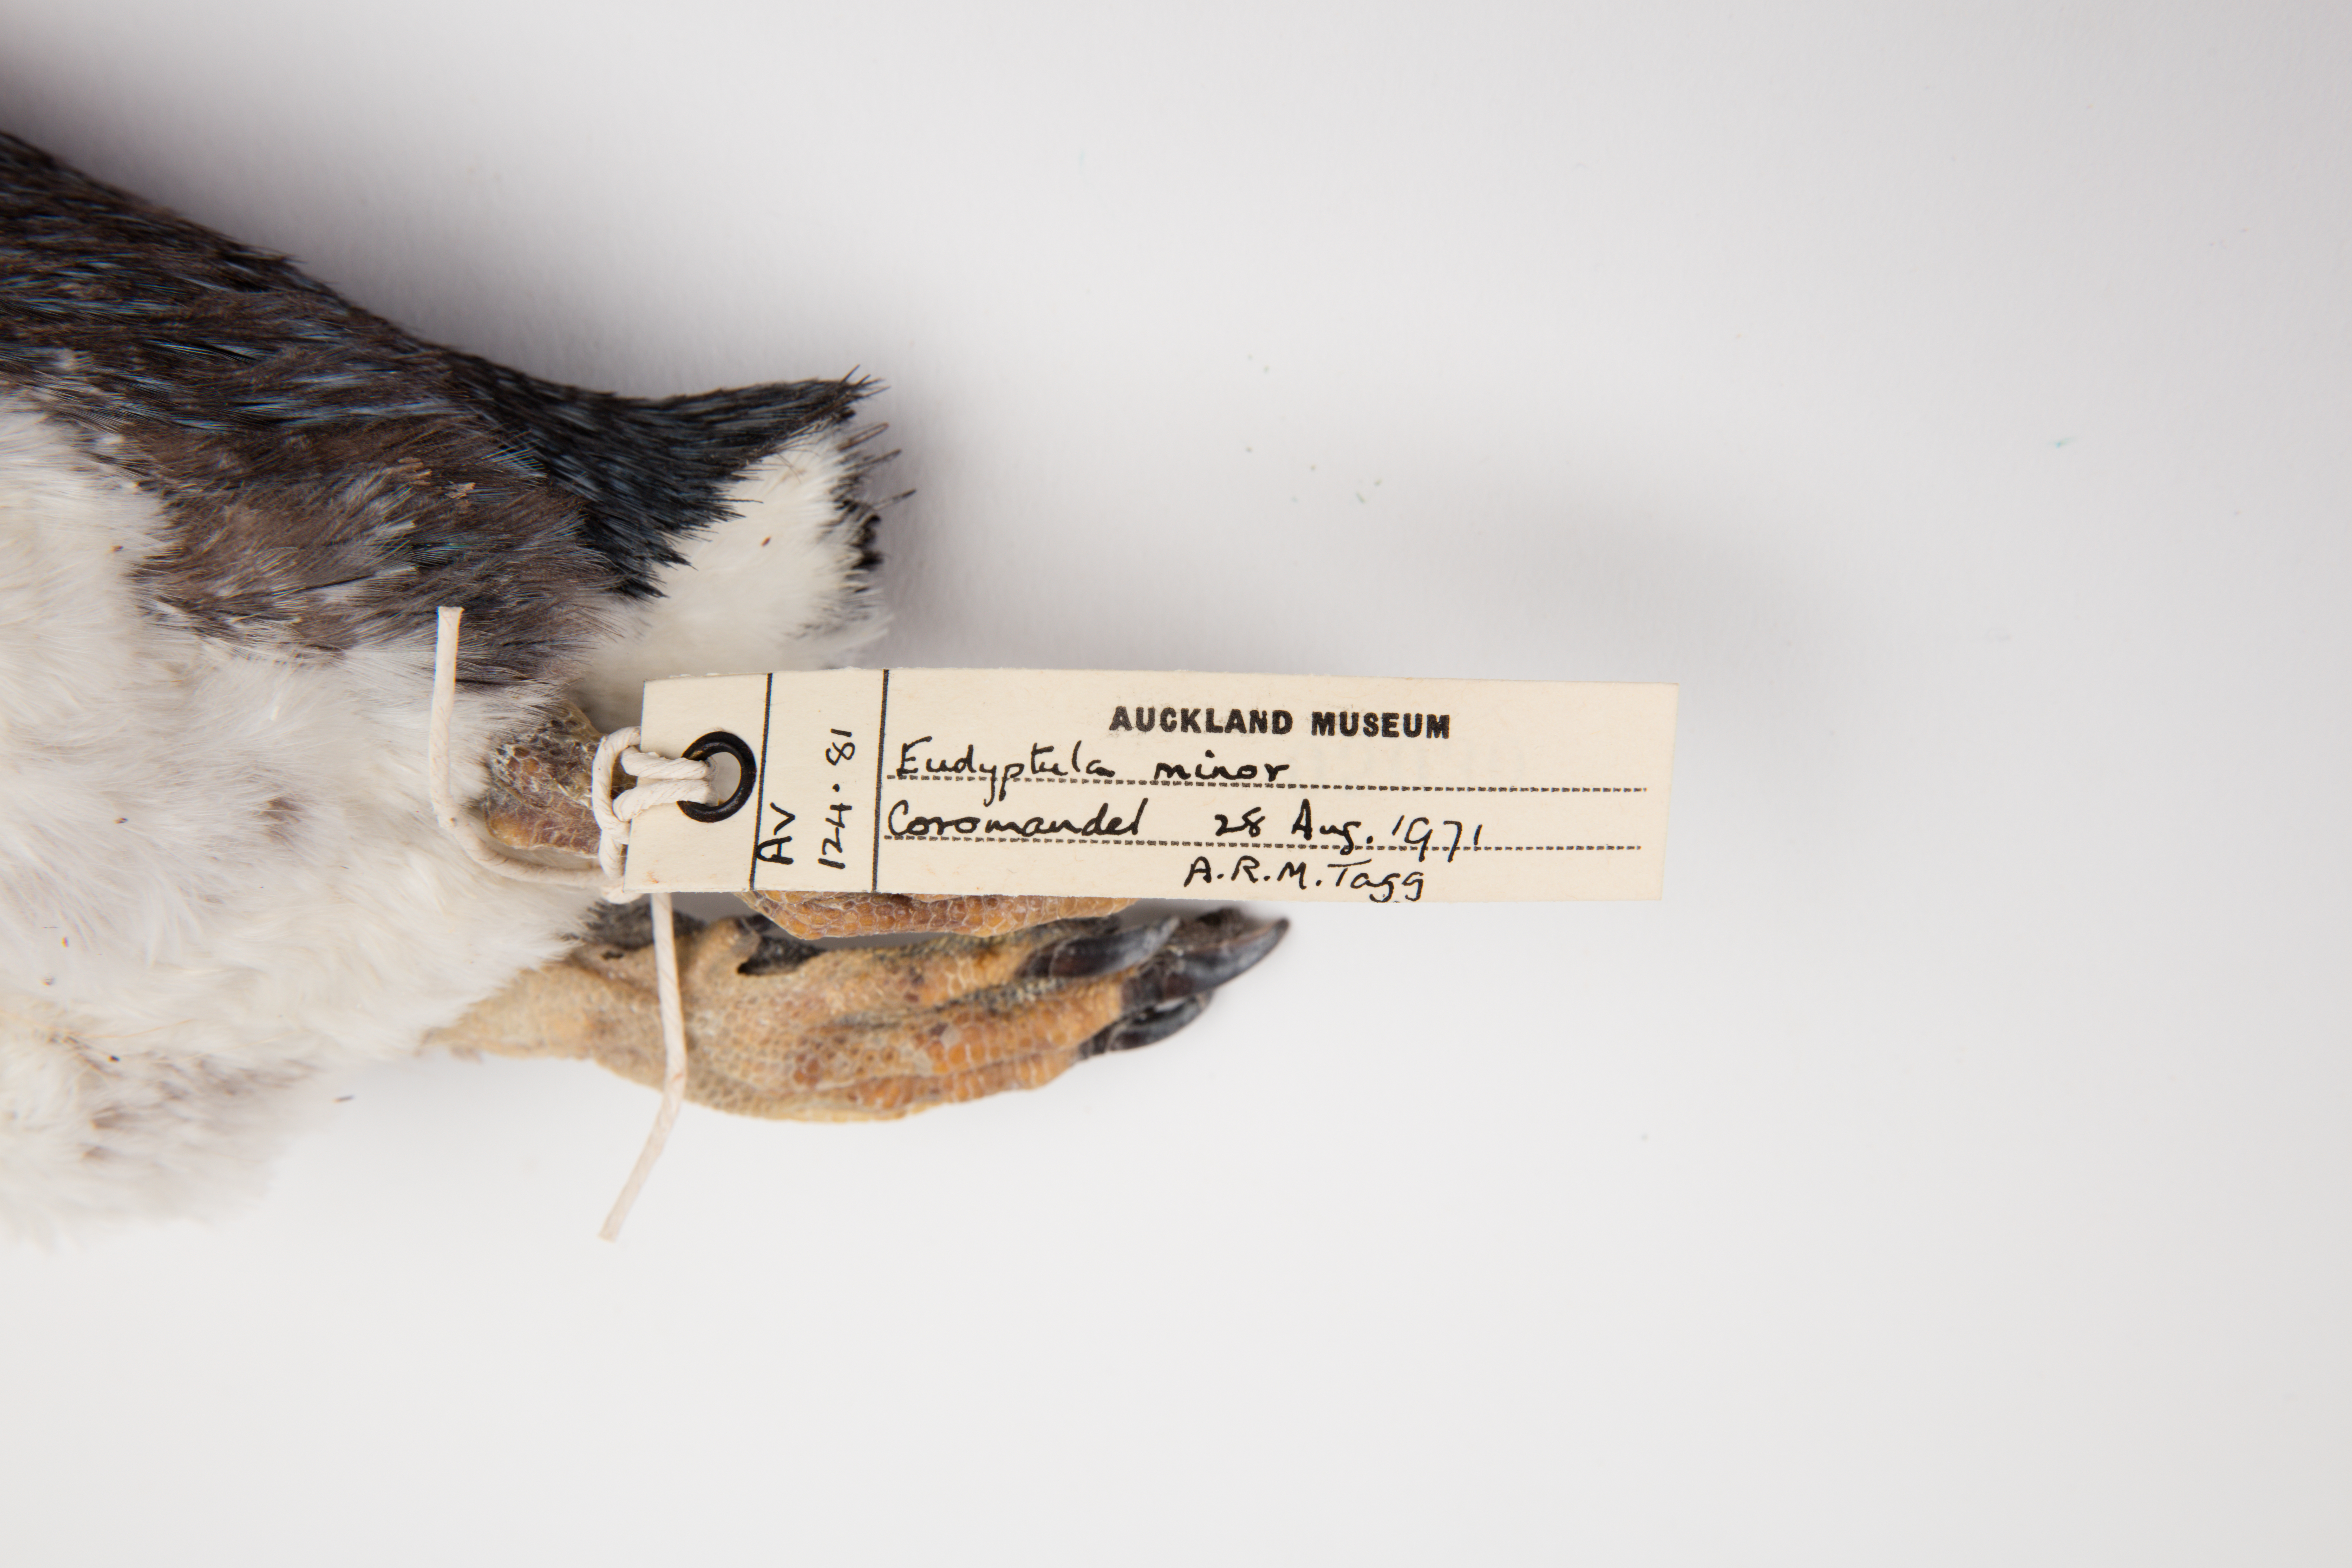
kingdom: Animalia
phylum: Chordata
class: Aves
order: Sphenisciformes
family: Spheniscidae
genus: Eudyptula
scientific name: Eudyptula minor
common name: Little penguin
